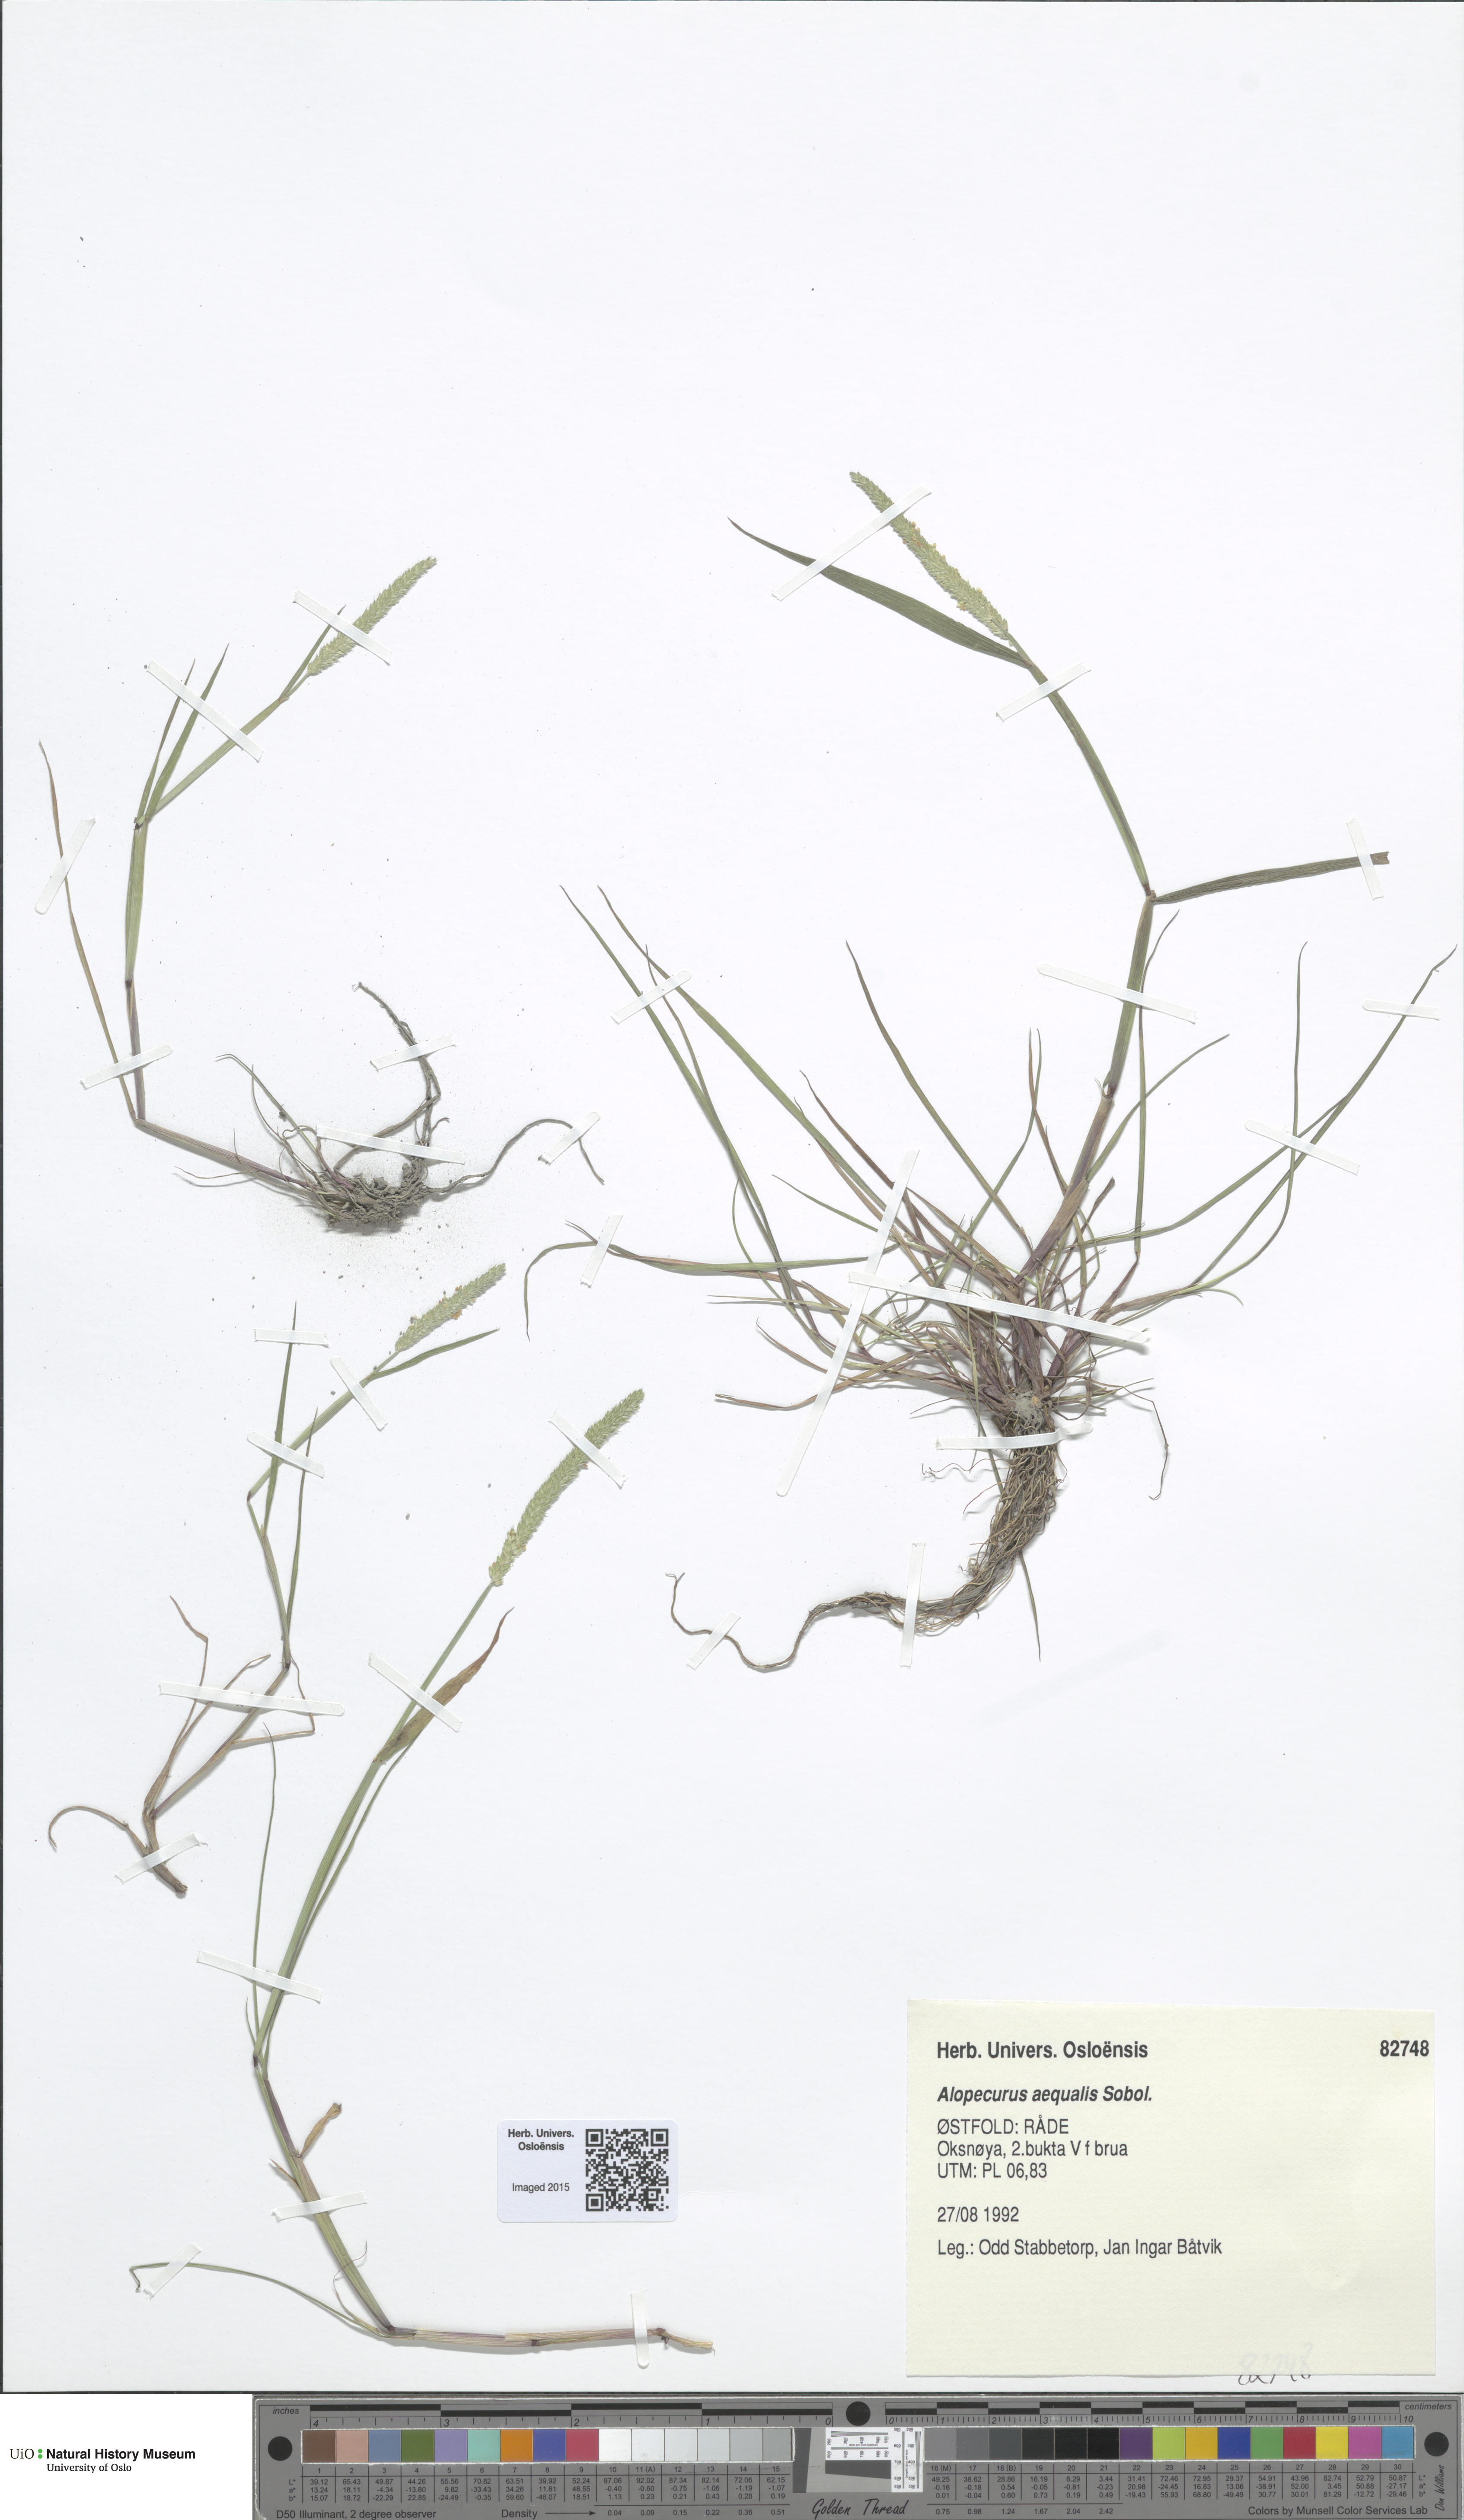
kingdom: Plantae
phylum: Tracheophyta
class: Liliopsida
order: Poales
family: Poaceae
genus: Alopecurus
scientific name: Alopecurus aequalis
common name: Orange foxtail
